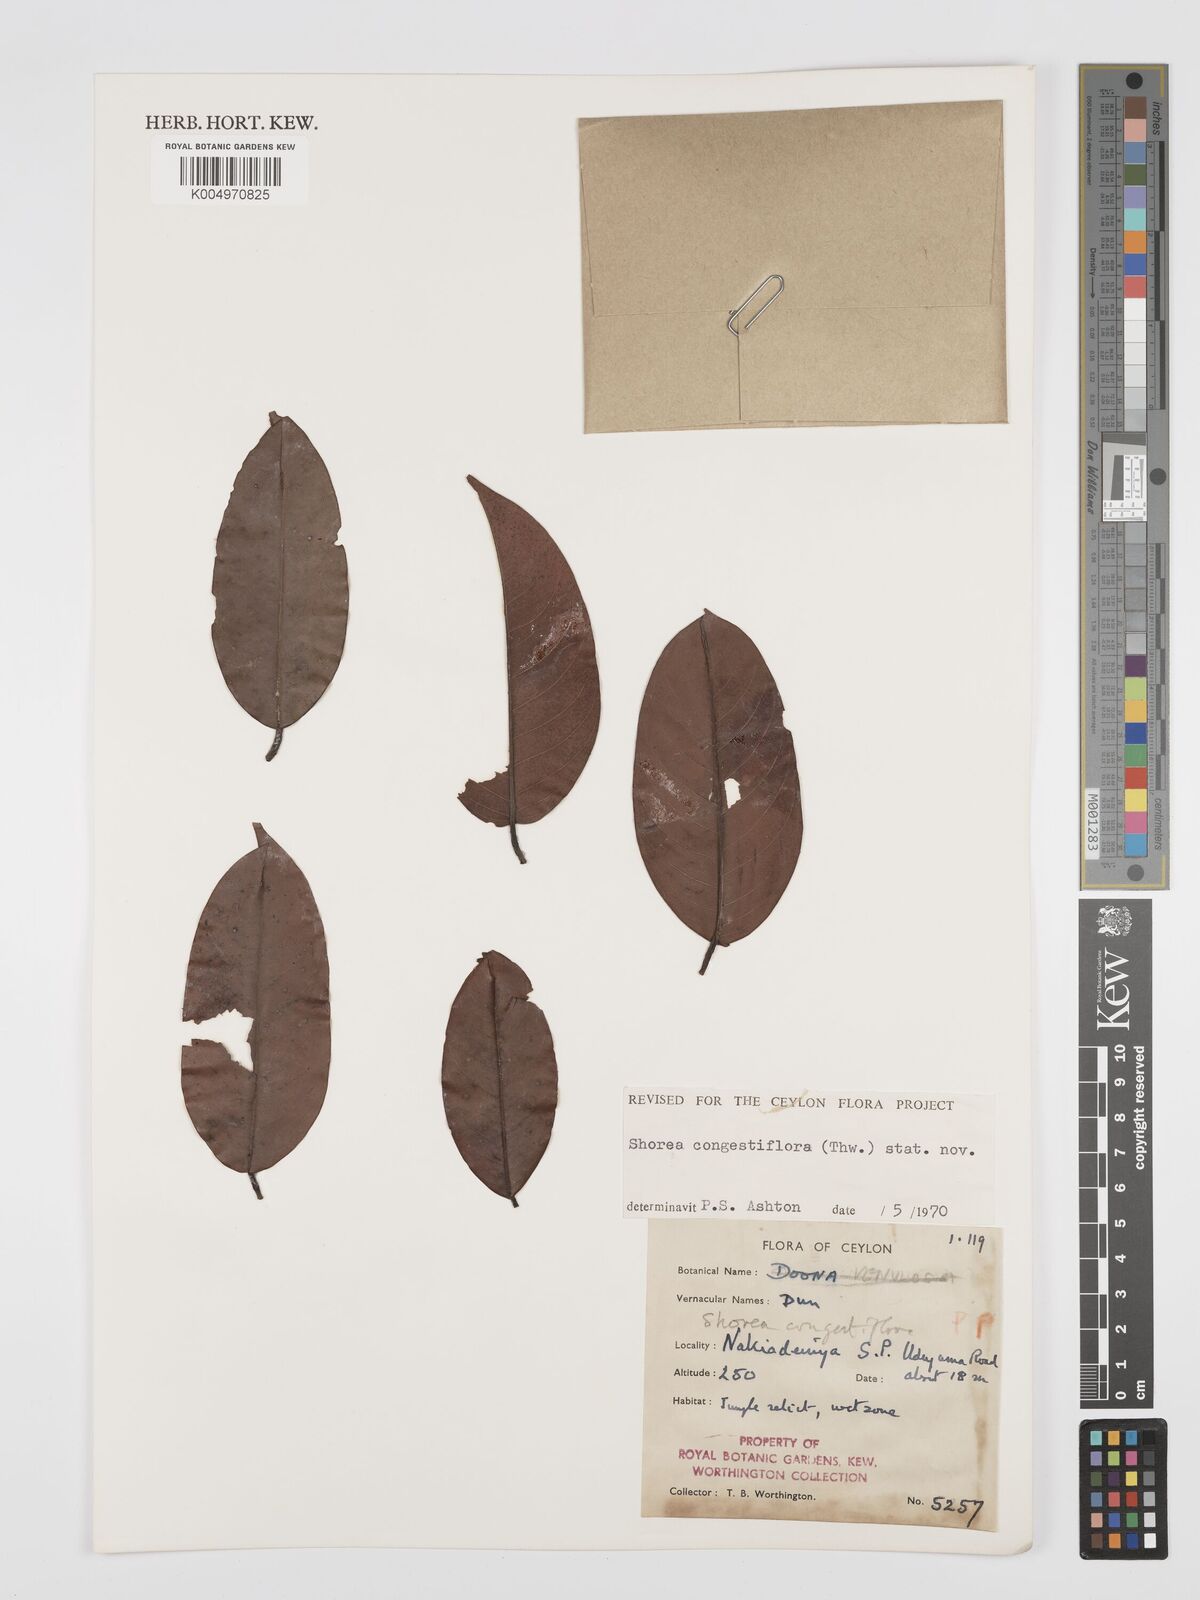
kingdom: Plantae
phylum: Tracheophyta
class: Magnoliopsida
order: Malvales
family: Dipterocarpaceae
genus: Doona
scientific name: Doona congestiflora
